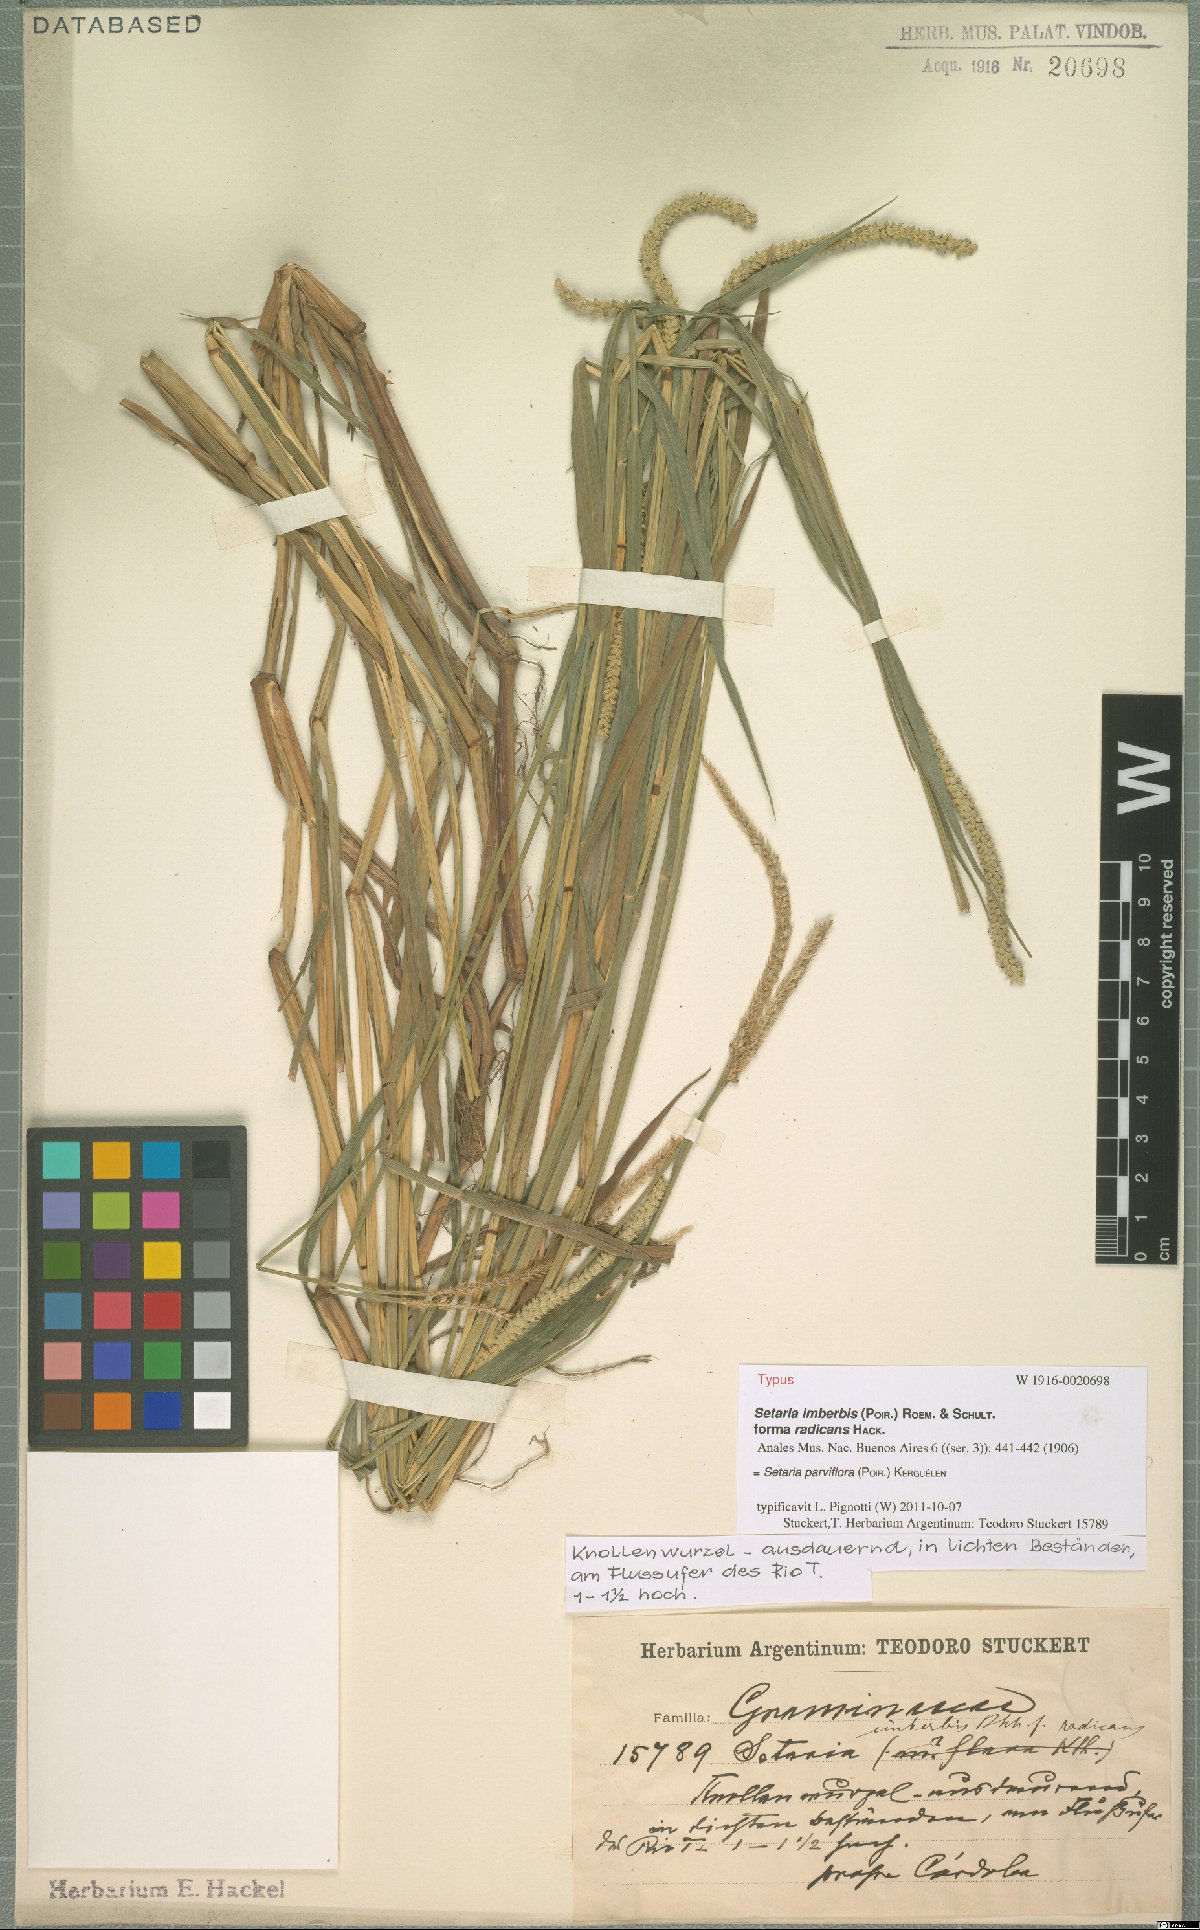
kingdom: Plantae
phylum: Tracheophyta
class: Liliopsida
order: Poales
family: Poaceae
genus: Setaria
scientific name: Setaria parviflora
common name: Knotroot bristle-grass
